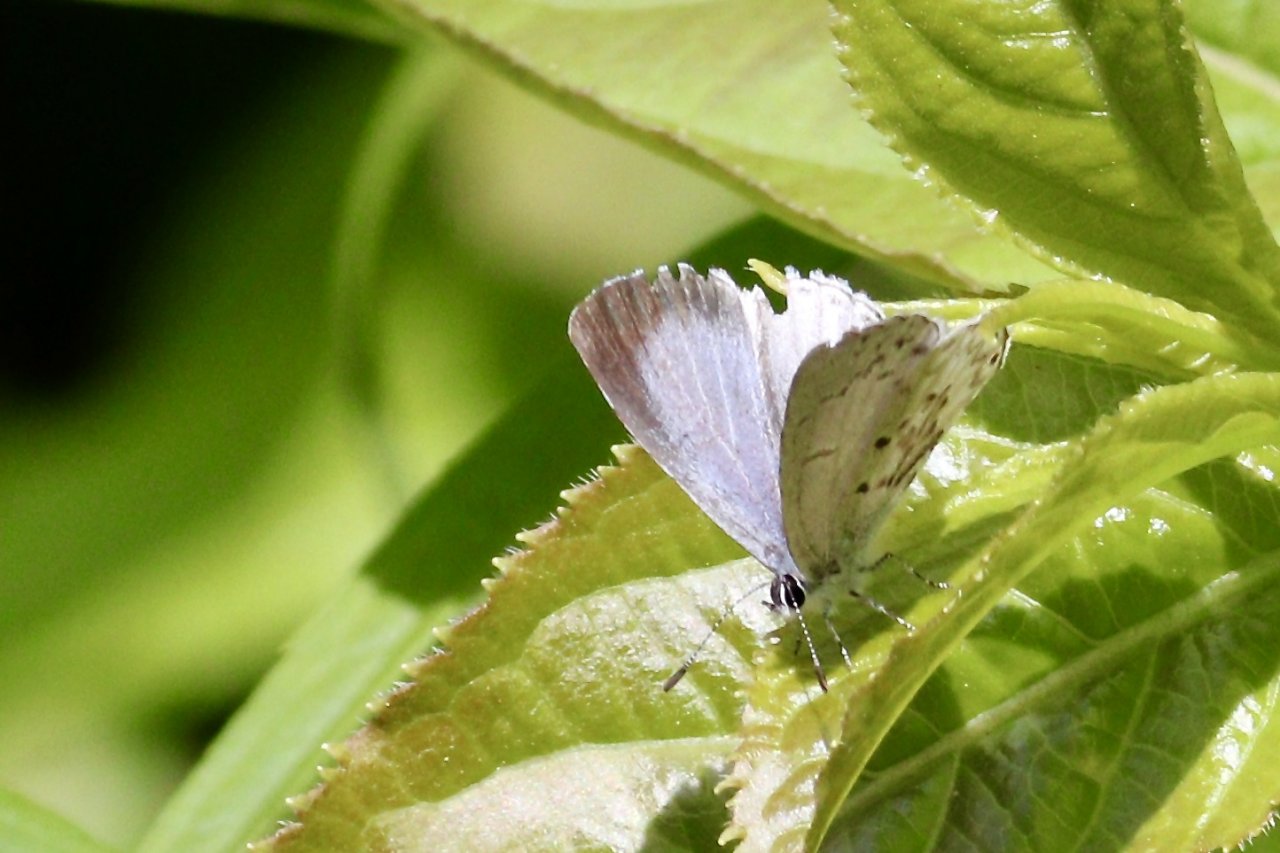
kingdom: Animalia
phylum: Arthropoda
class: Insecta
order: Lepidoptera
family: Lycaenidae
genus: Celastrina
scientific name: Celastrina lucia
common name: Northern Spring Azure
